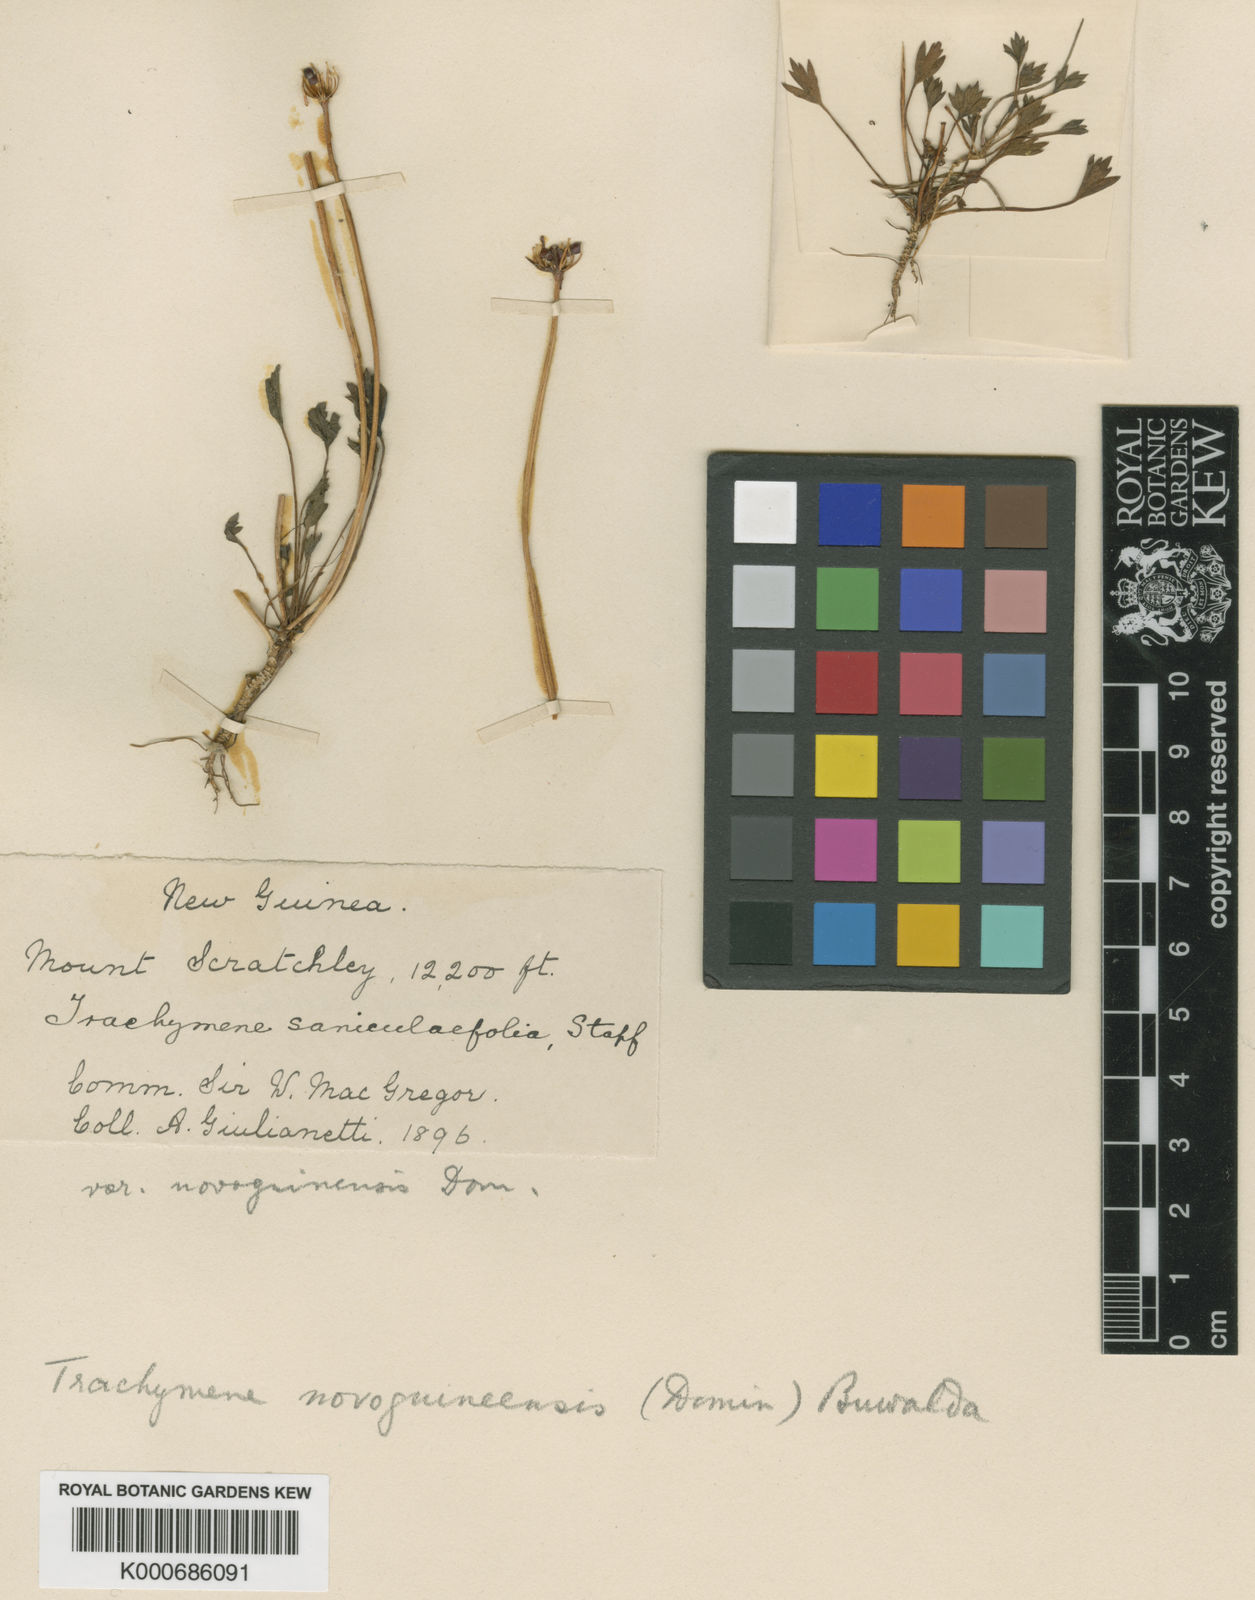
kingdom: Plantae
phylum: Tracheophyta
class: Magnoliopsida
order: Apiales
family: Araliaceae
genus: Trachymene
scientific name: Trachymene novoguineensis
